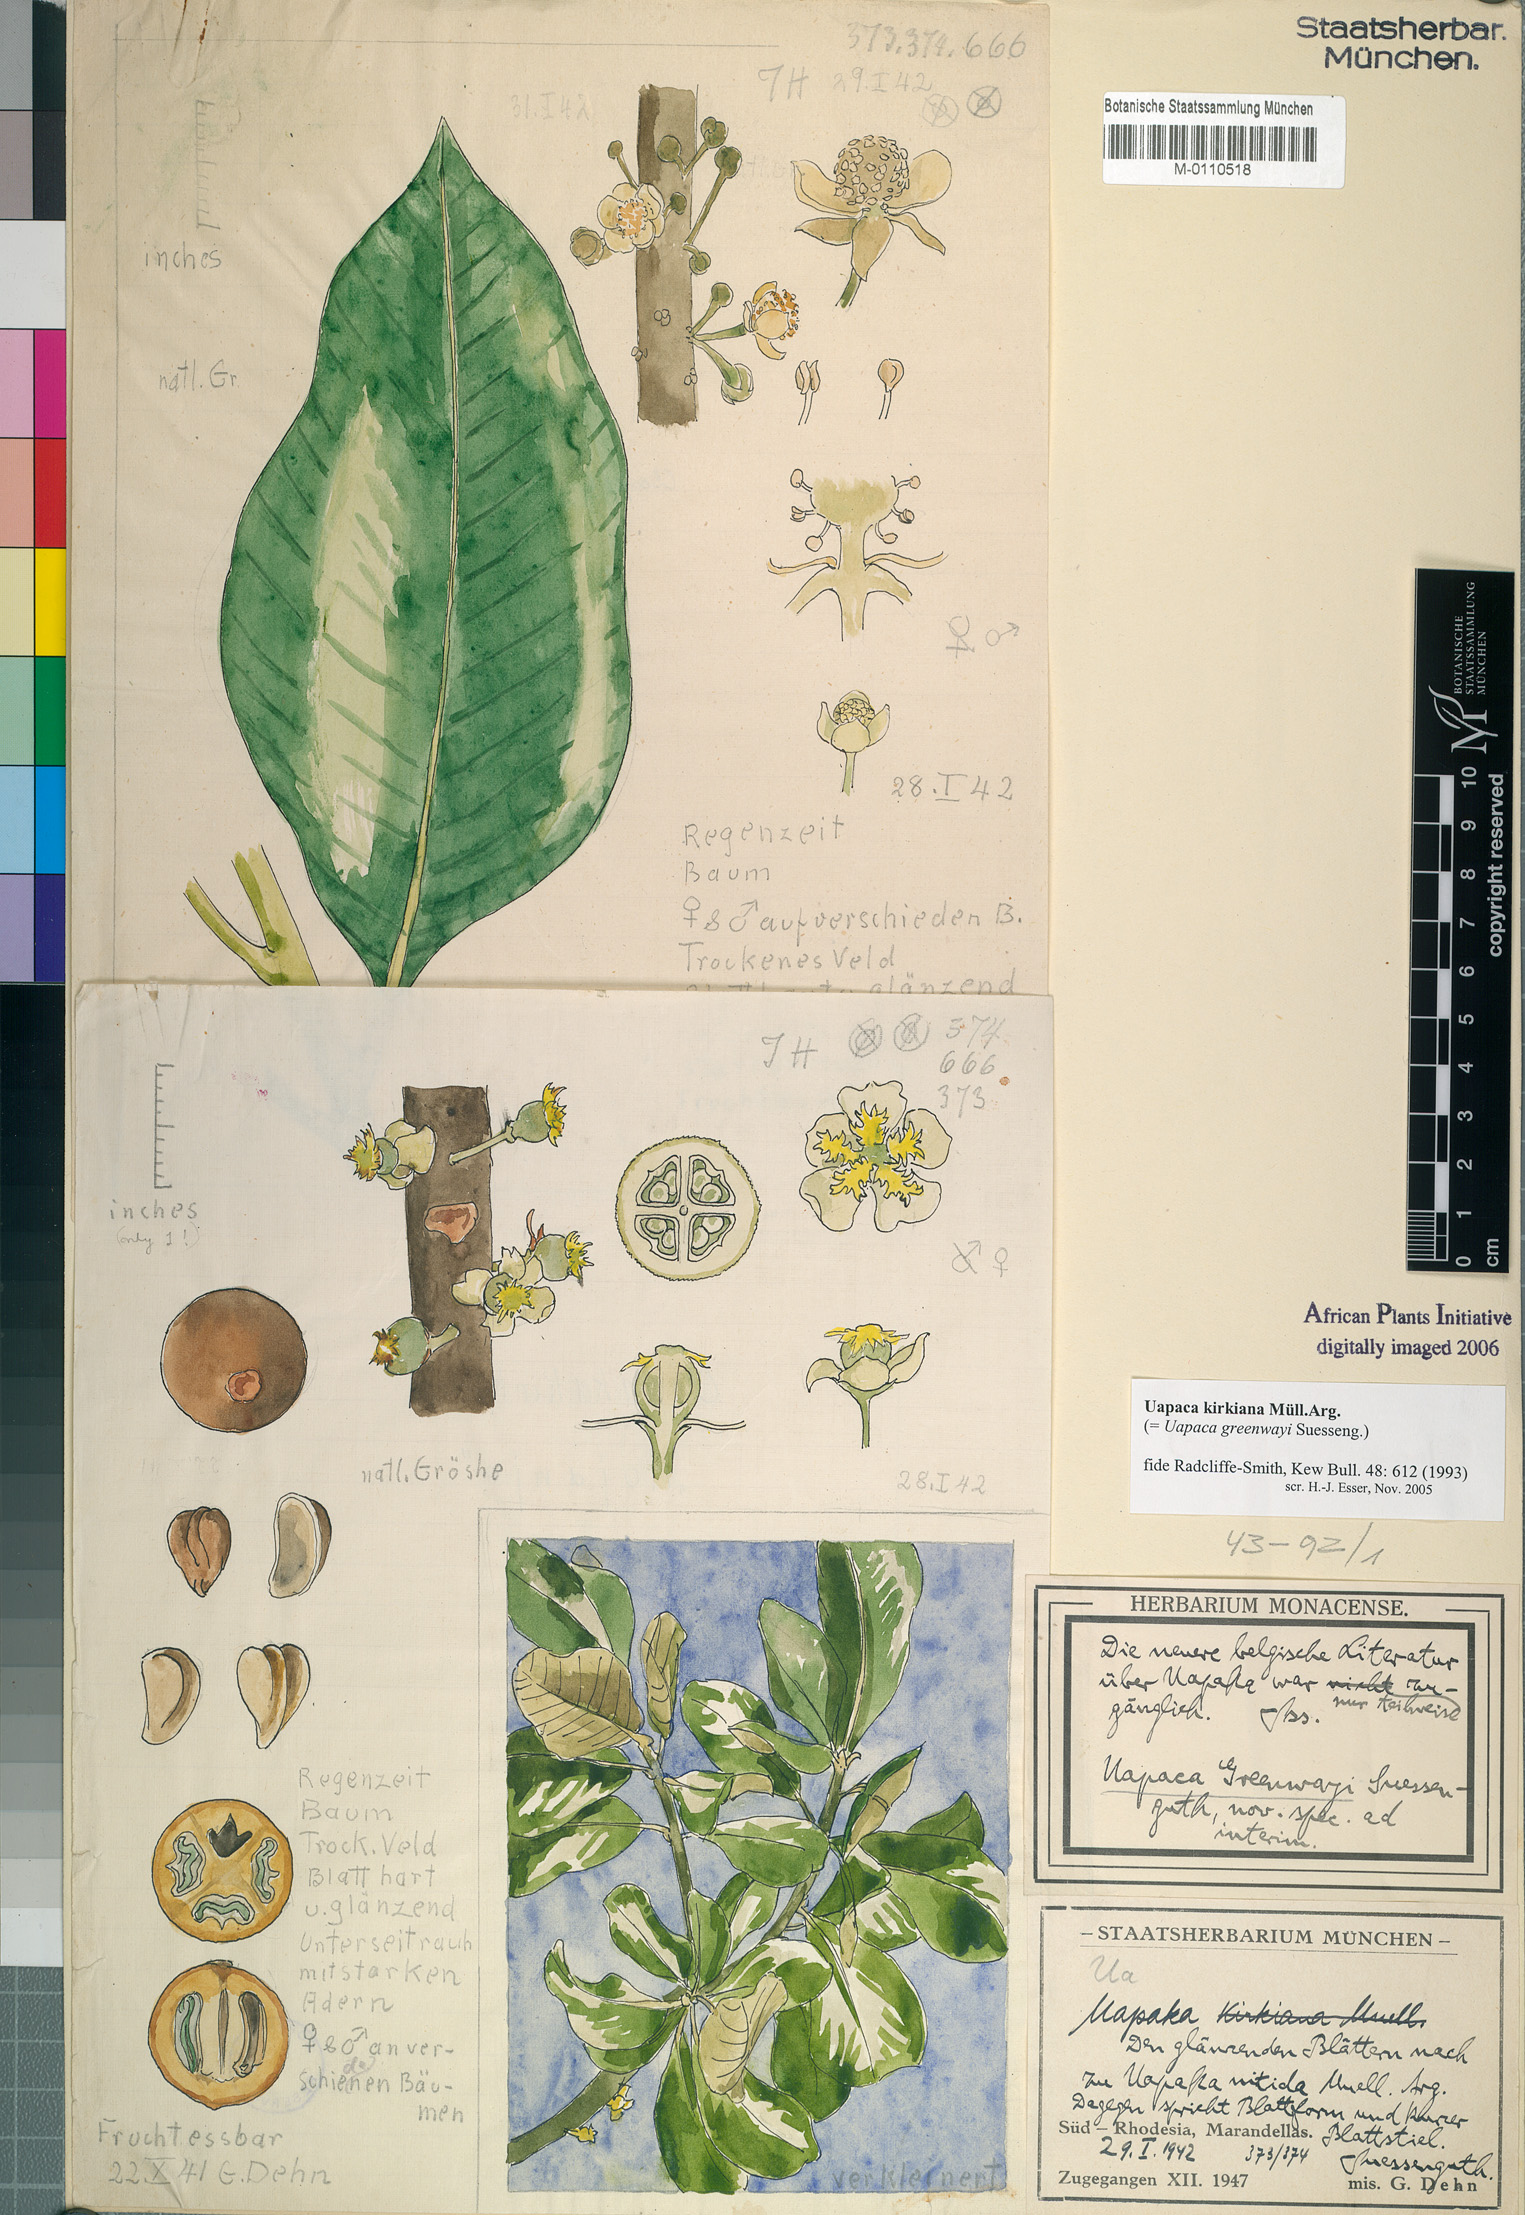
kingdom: Plantae
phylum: Tracheophyta
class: Magnoliopsida
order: Malpighiales
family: Phyllanthaceae
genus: Uapaca
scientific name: Uapaca kirkiana
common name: Wild loquat
